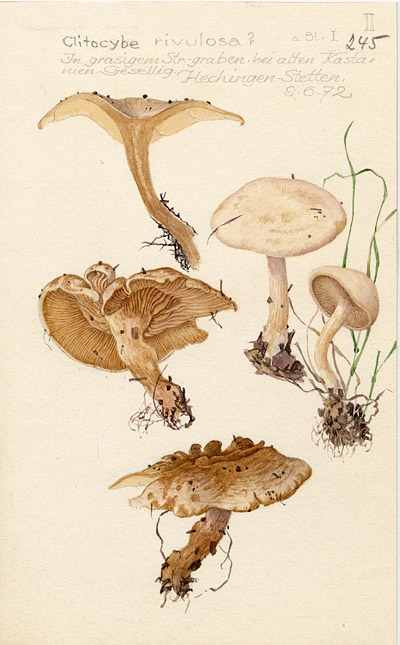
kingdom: Fungi
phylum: Basidiomycota
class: Agaricomycetes
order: Agaricales
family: Tricholomataceae
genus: Clitocybe
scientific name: Clitocybe rivulosa
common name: Cracking clitocybe
